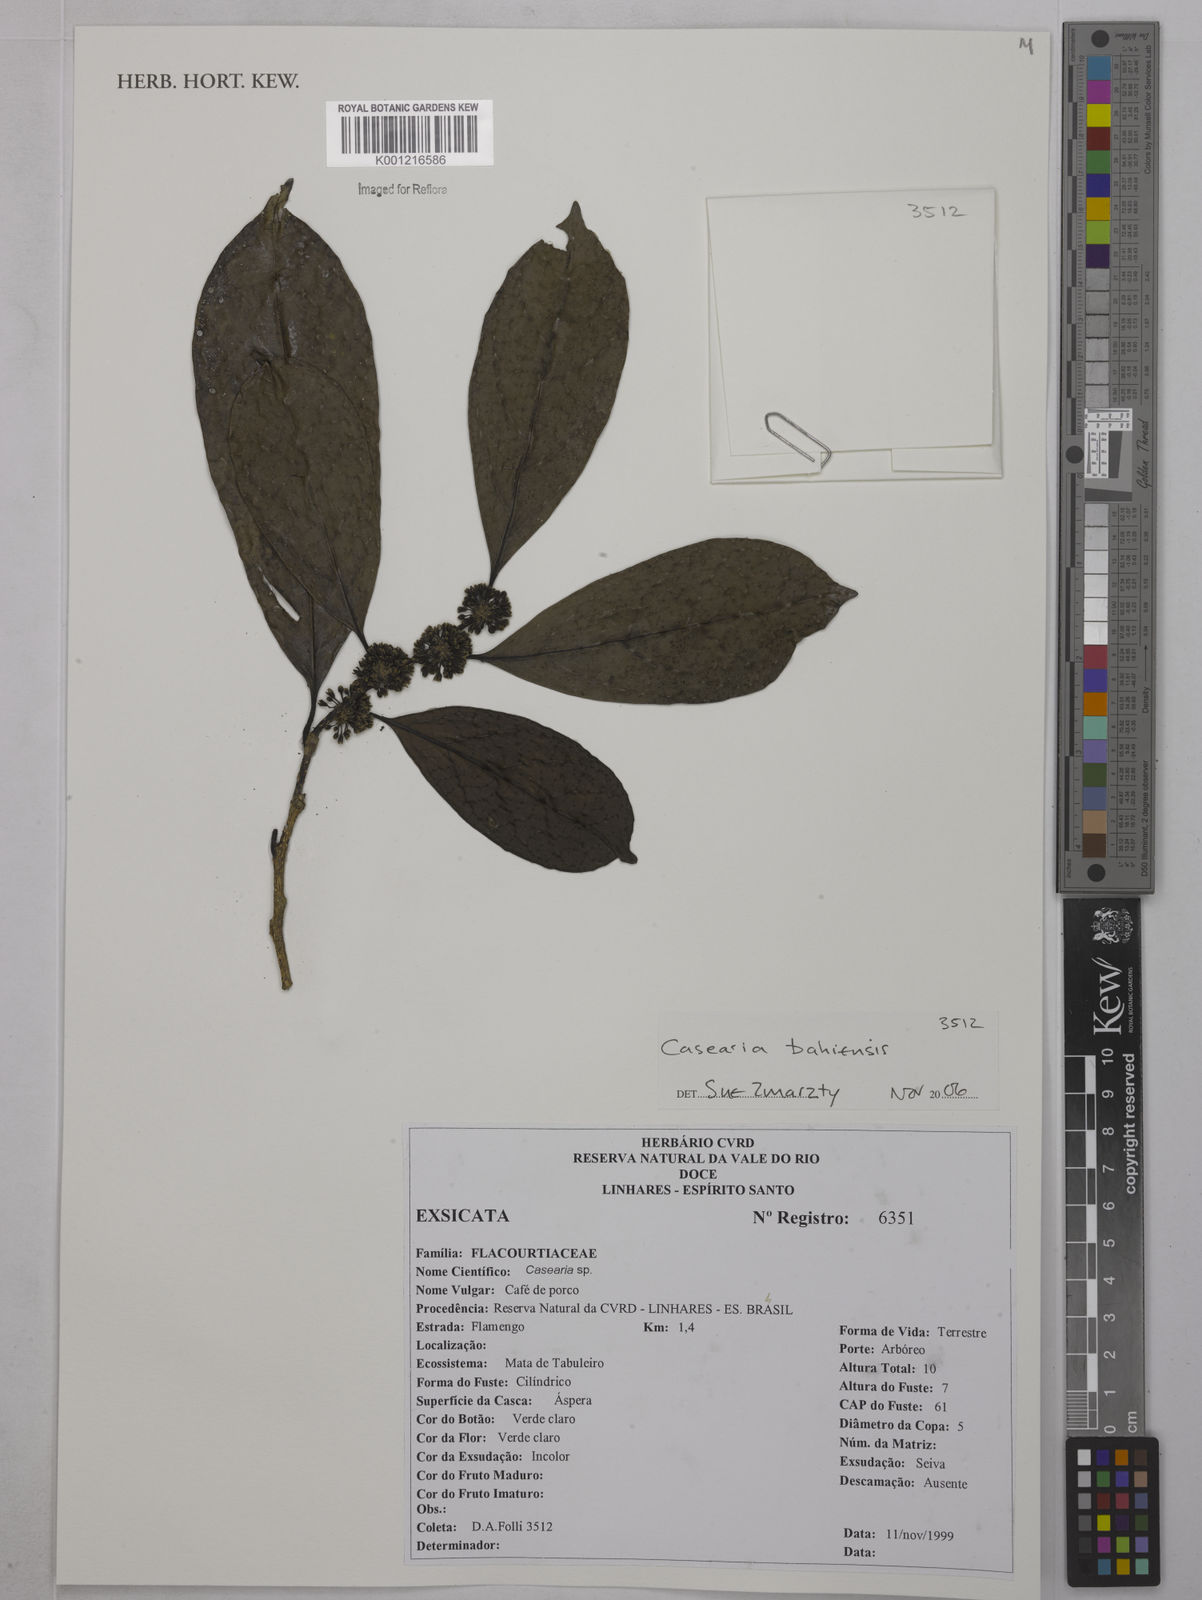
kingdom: Plantae
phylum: Tracheophyta
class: Magnoliopsida
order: Malpighiales
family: Salicaceae
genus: Casearia
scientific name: Casearia bahiensis
